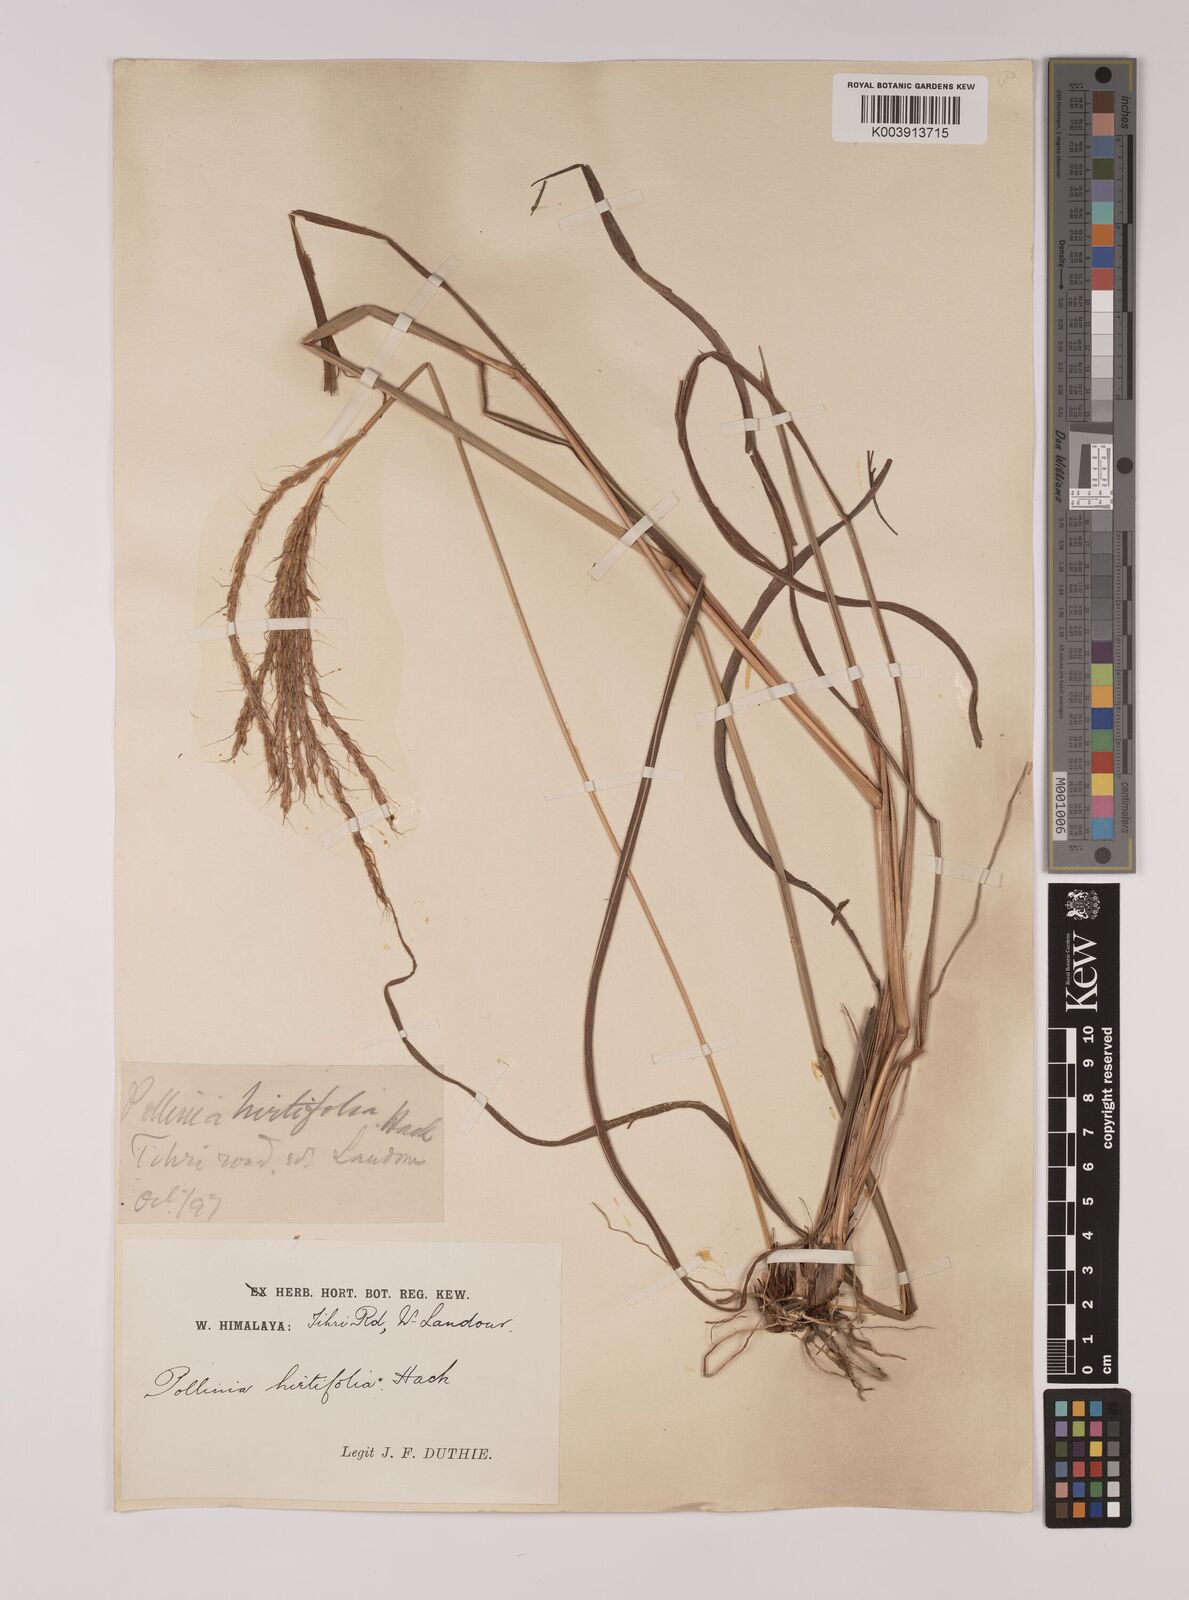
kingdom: Plantae
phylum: Tracheophyta
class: Liliopsida
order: Poales
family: Poaceae
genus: Eulalia
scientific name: Eulalia hirtifolia
